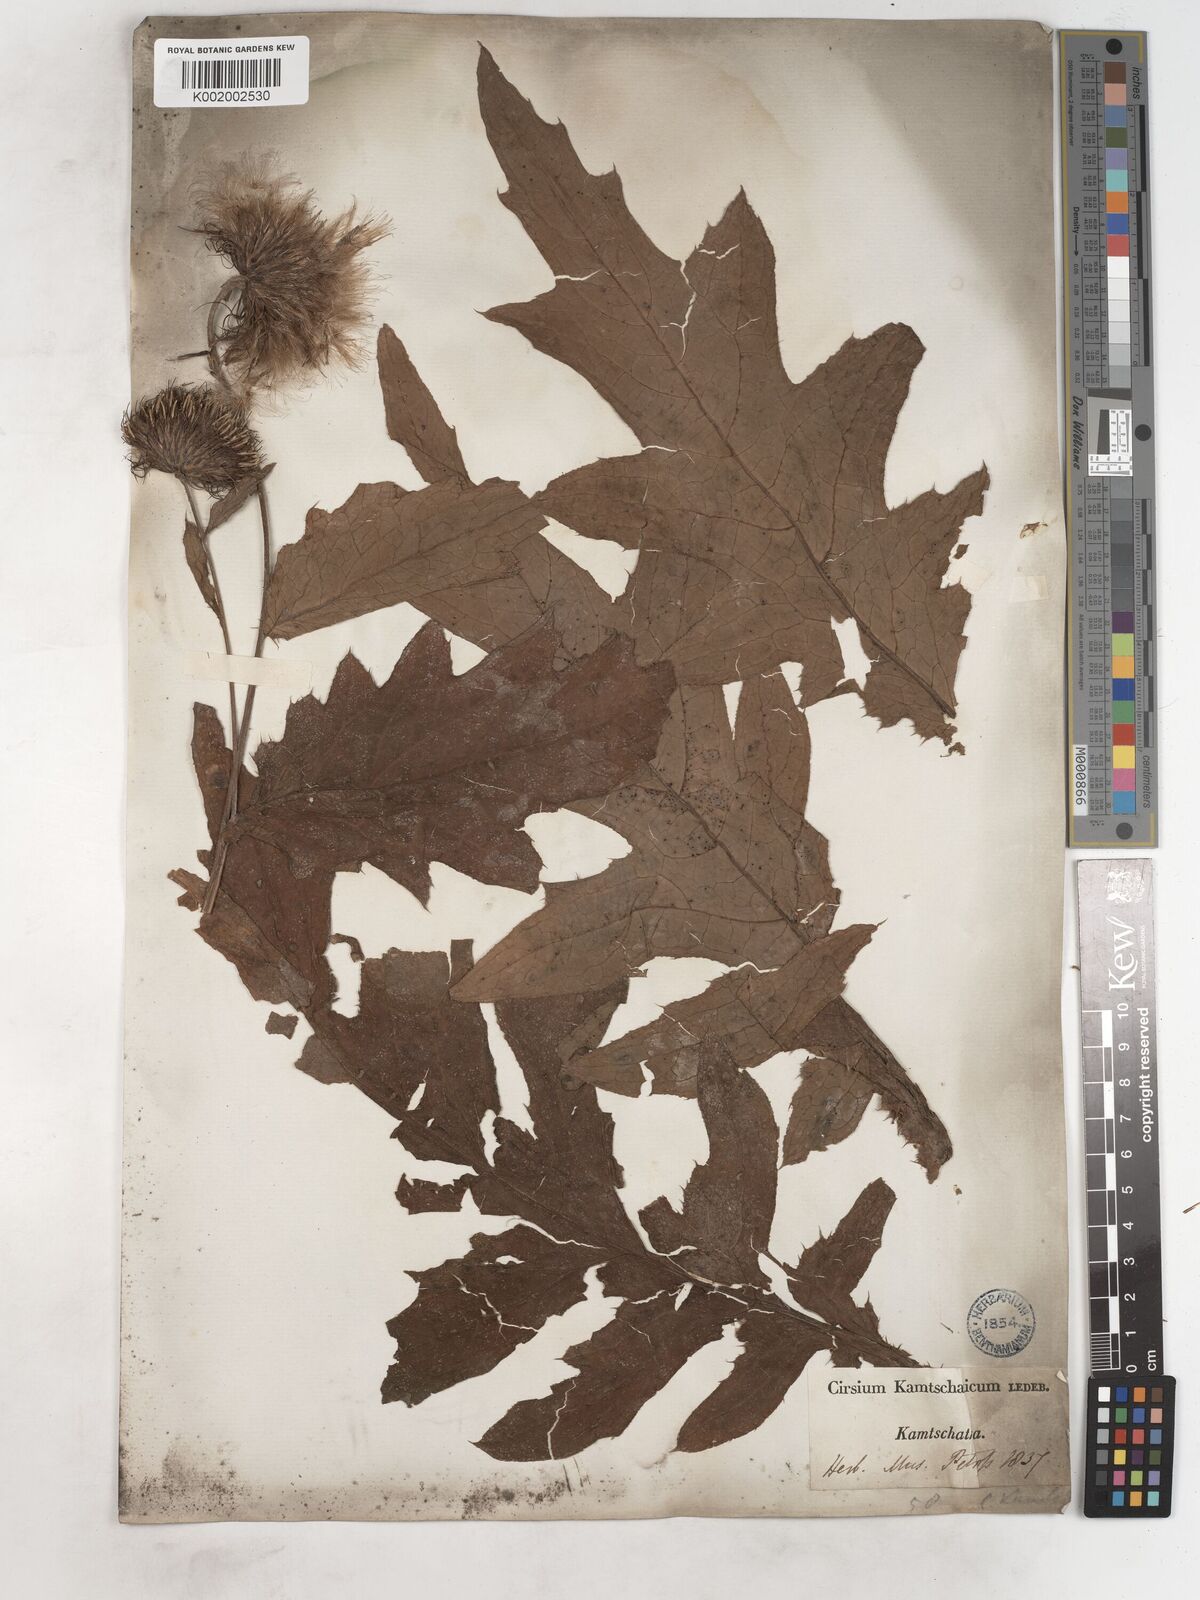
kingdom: Plantae
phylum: Tracheophyta
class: Magnoliopsida
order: Asterales
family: Asteraceae
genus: Cirsium
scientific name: Cirsium kamtschaticum
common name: Kamchatka thistle
